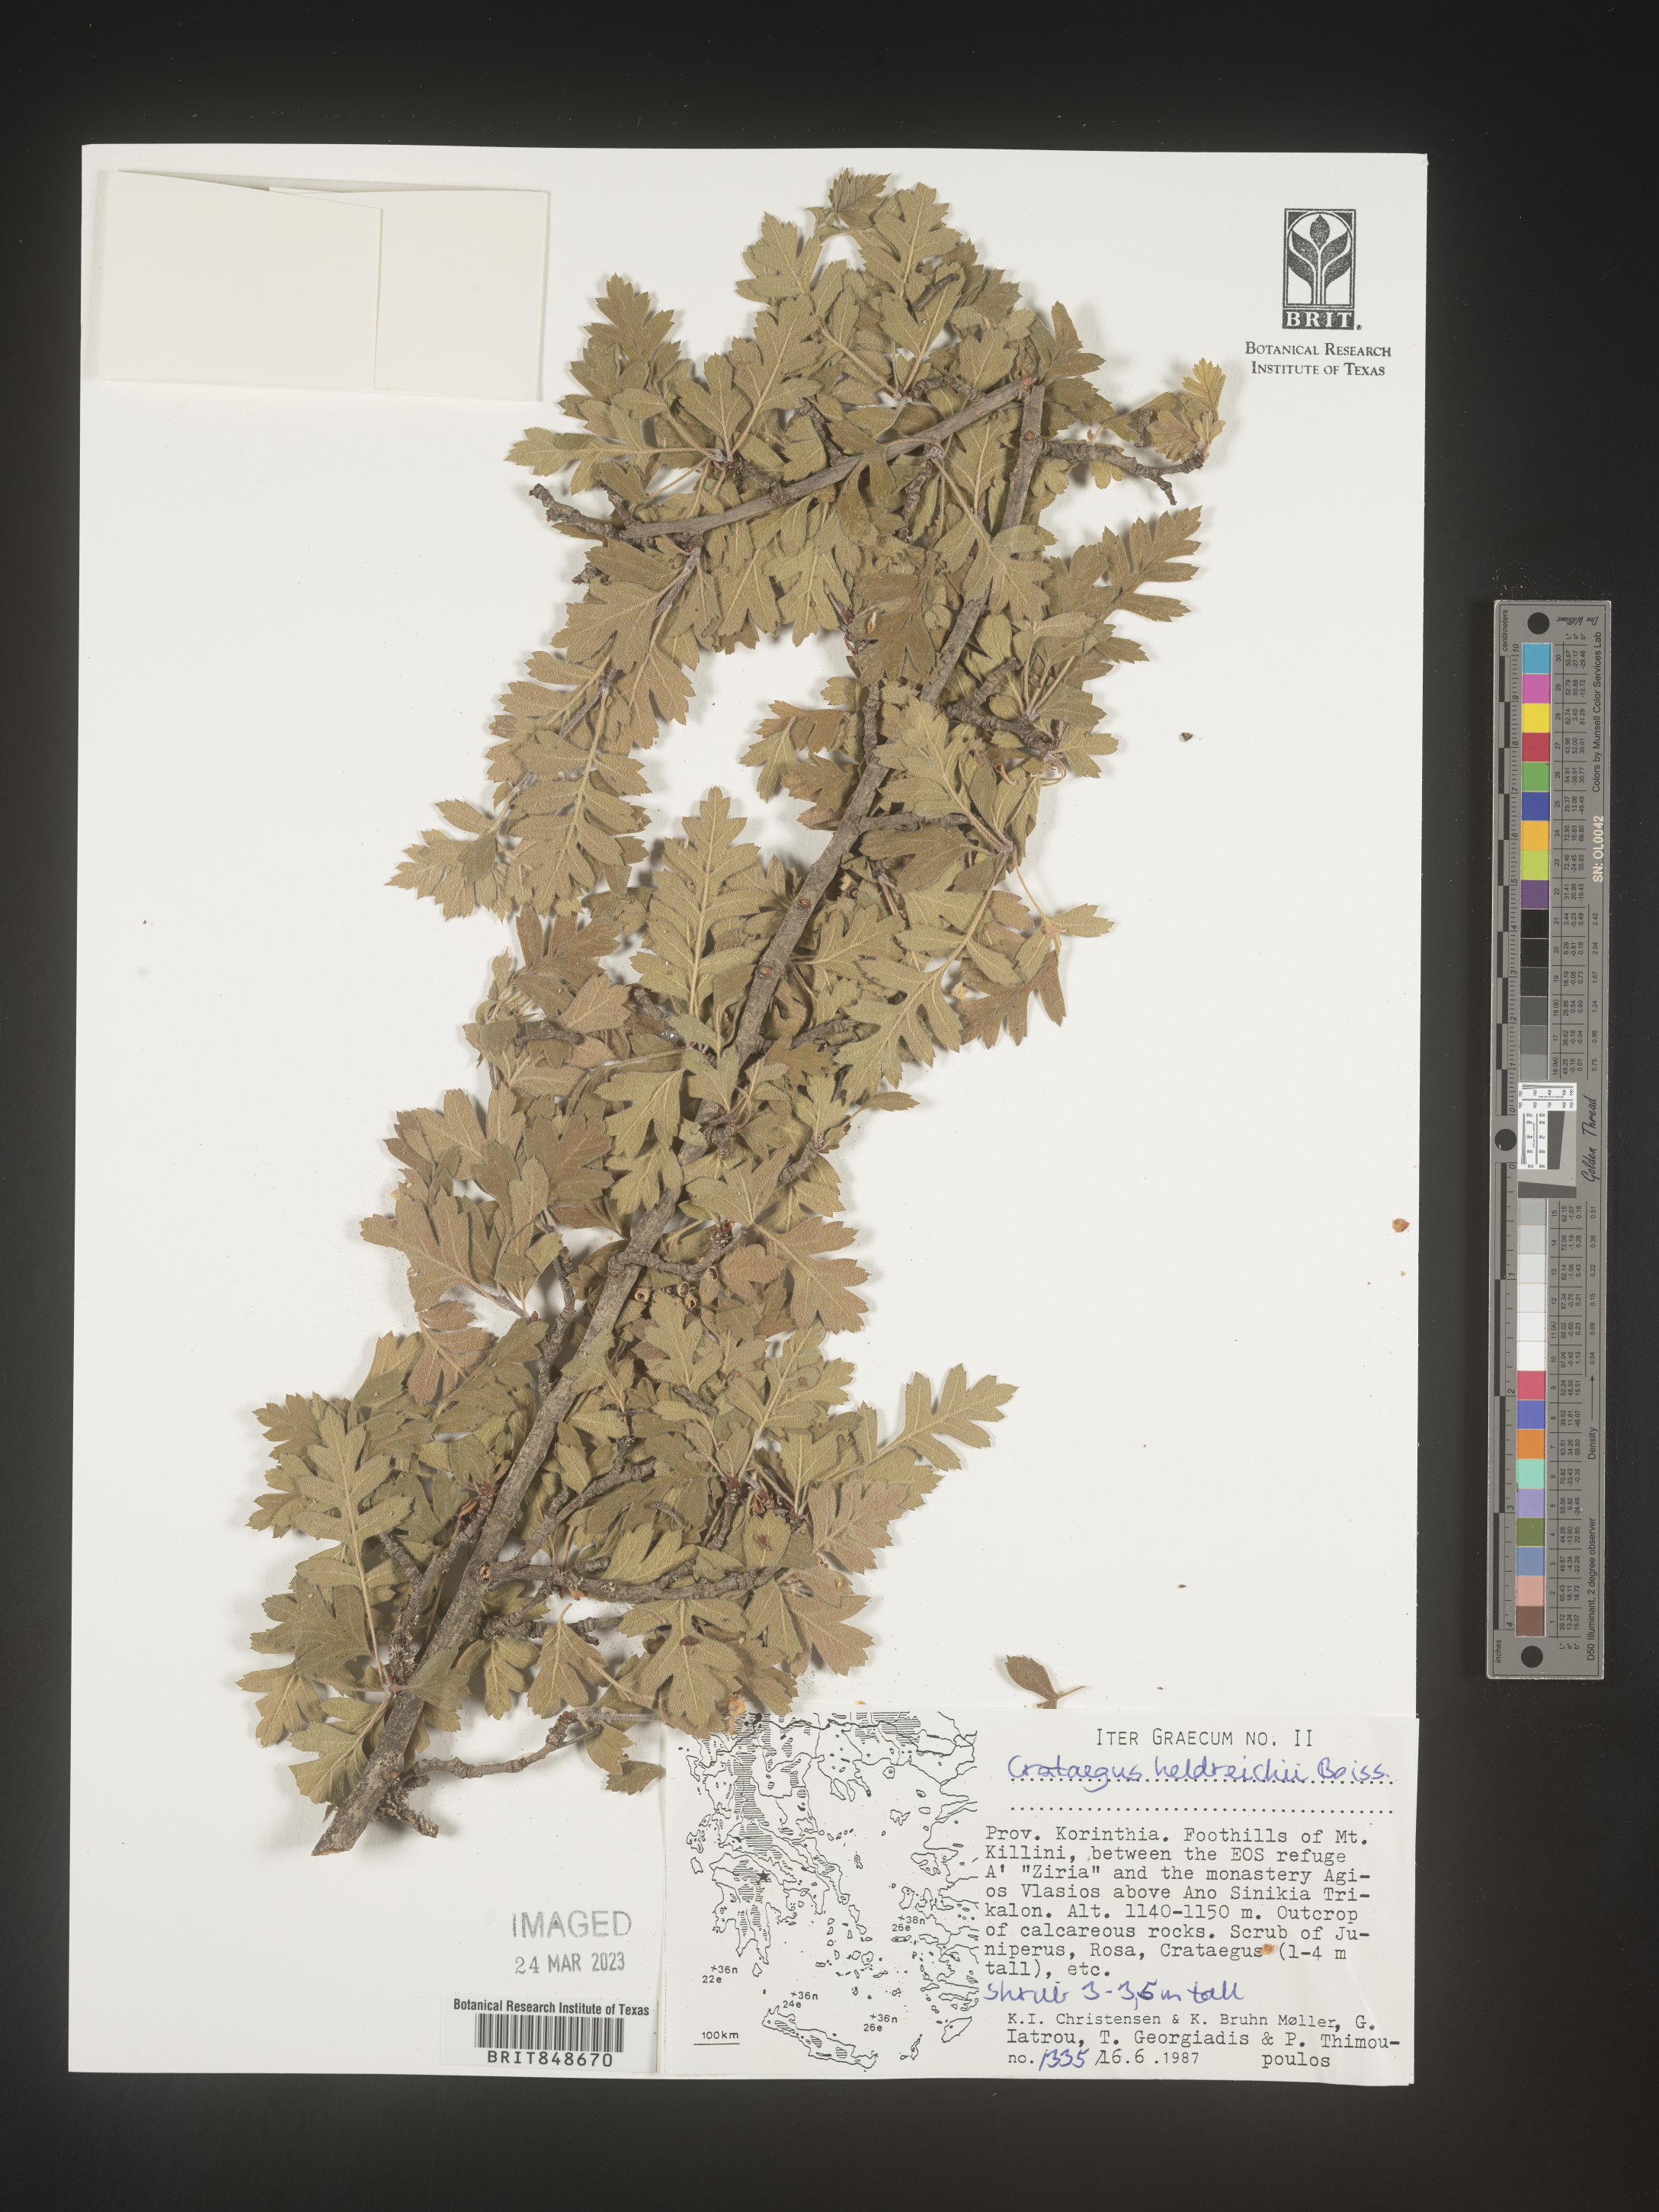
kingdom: Plantae
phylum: Tracheophyta
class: Magnoliopsida
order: Rosales
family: Rosaceae
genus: Crataegus
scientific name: Crataegus
